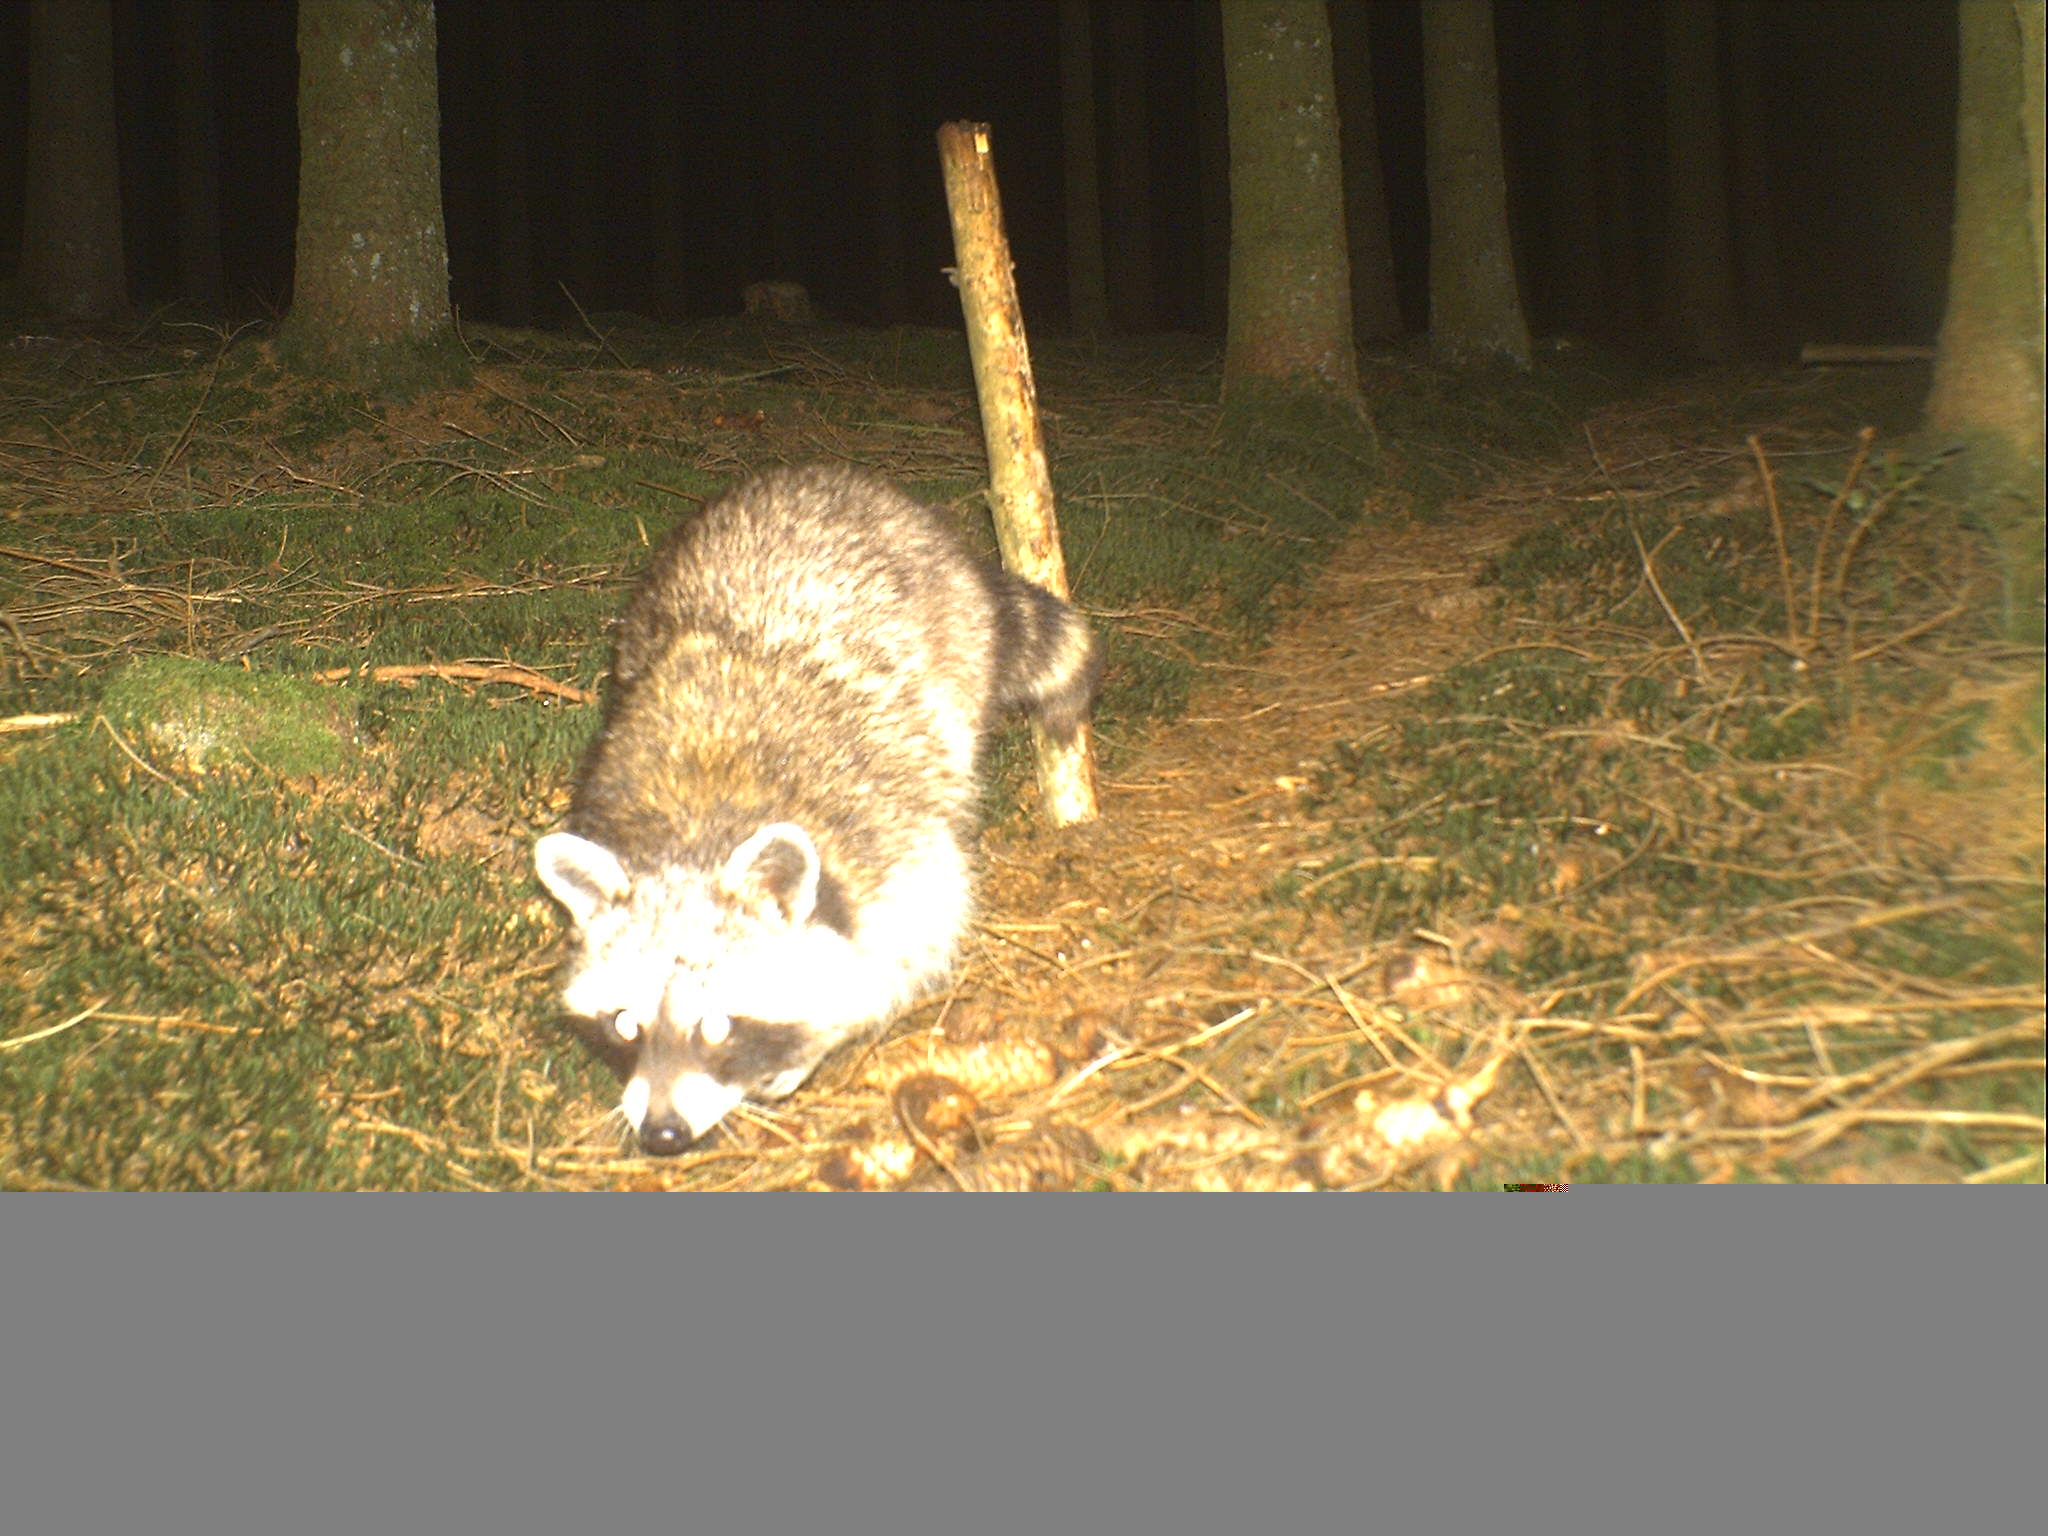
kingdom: Animalia
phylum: Chordata
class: Mammalia
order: Carnivora
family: Procyonidae
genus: Procyon
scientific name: Procyon lotor
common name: Raccoon
